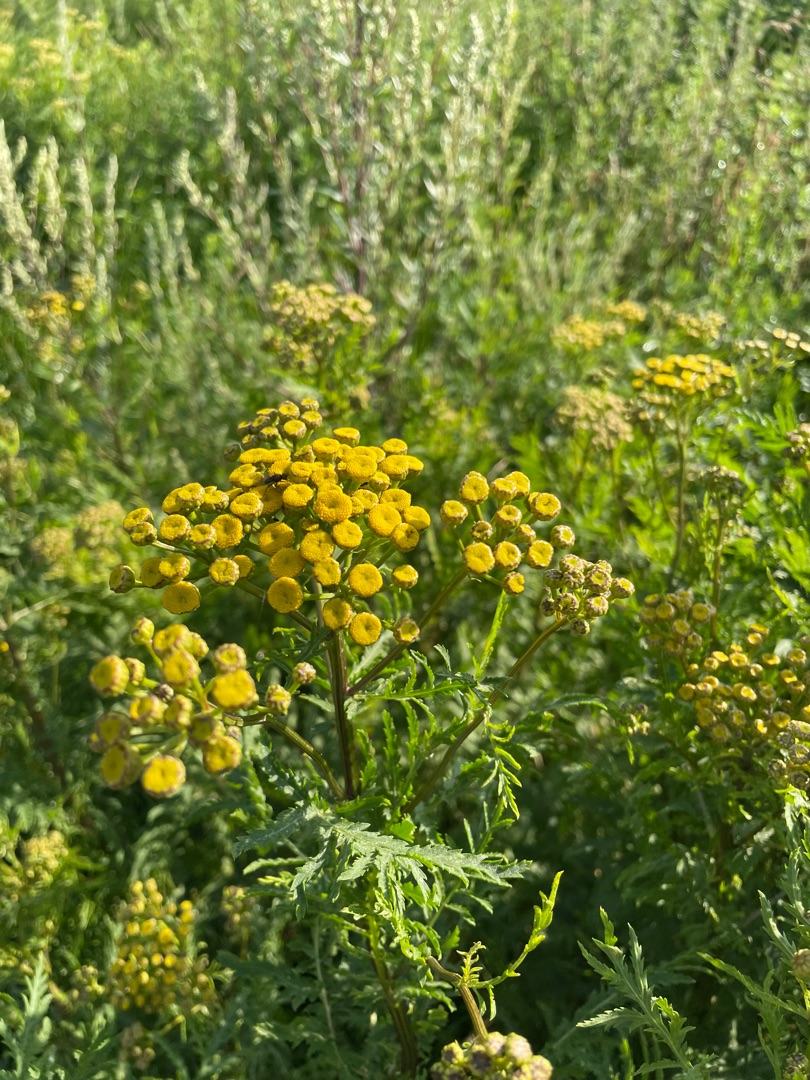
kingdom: Plantae
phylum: Tracheophyta
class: Magnoliopsida
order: Asterales
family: Asteraceae
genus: Tanacetum
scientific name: Tanacetum vulgare
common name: Rejnfan
